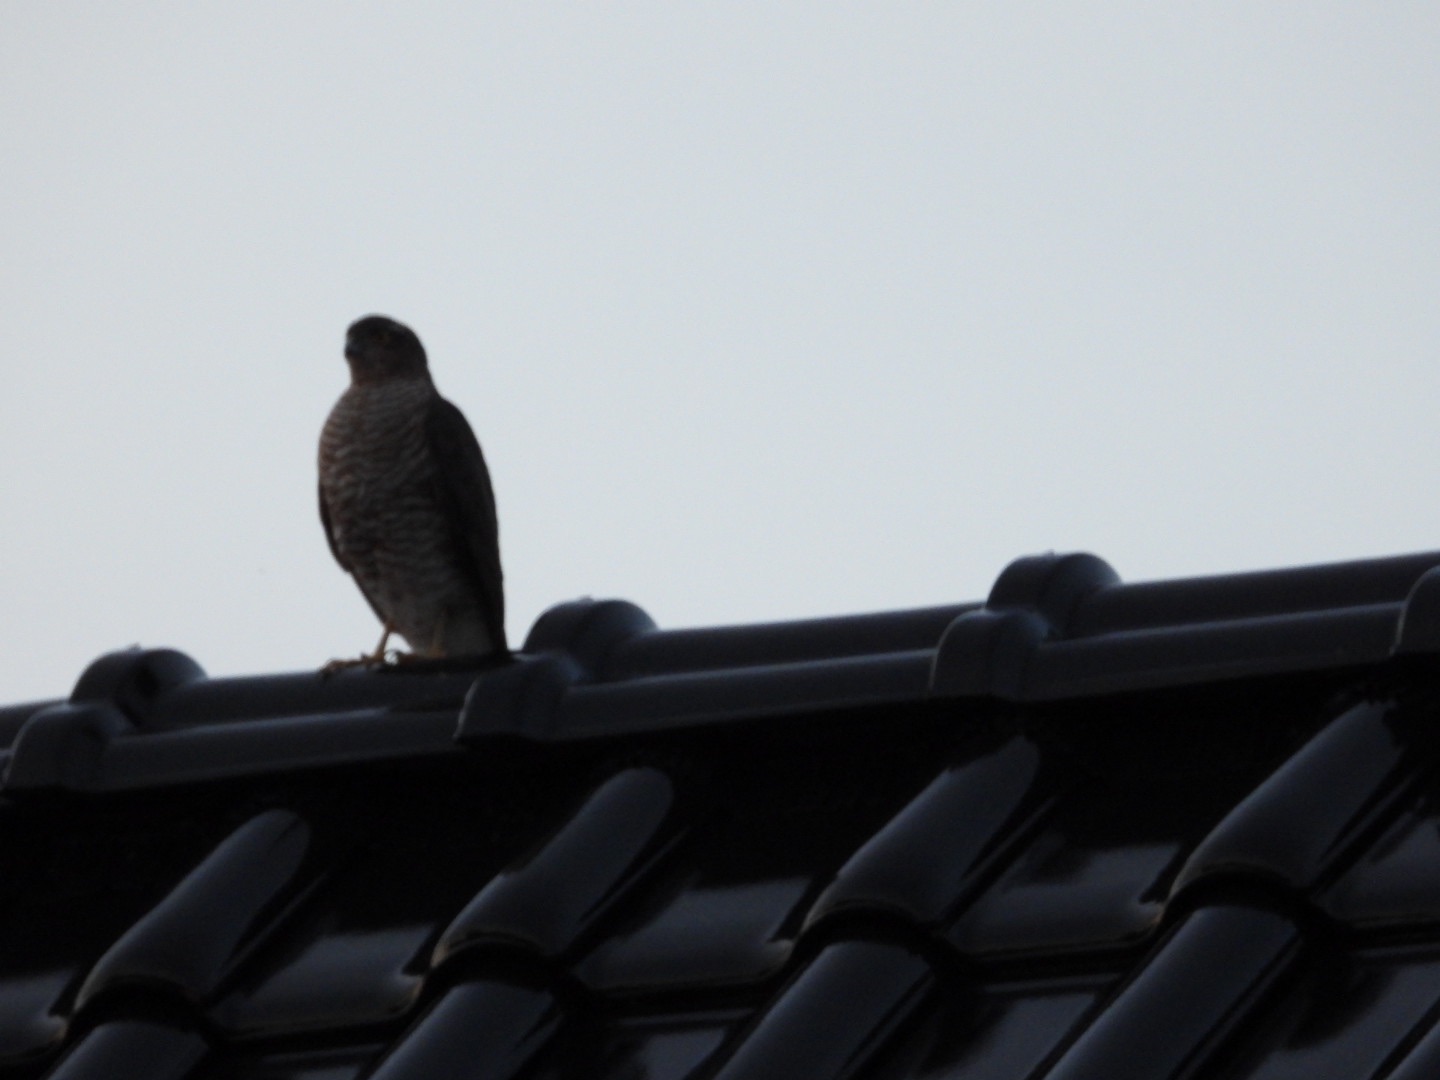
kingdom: Animalia
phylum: Chordata
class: Aves
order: Accipitriformes
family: Accipitridae
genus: Accipiter
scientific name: Accipiter nisus
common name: Spurvehøg
